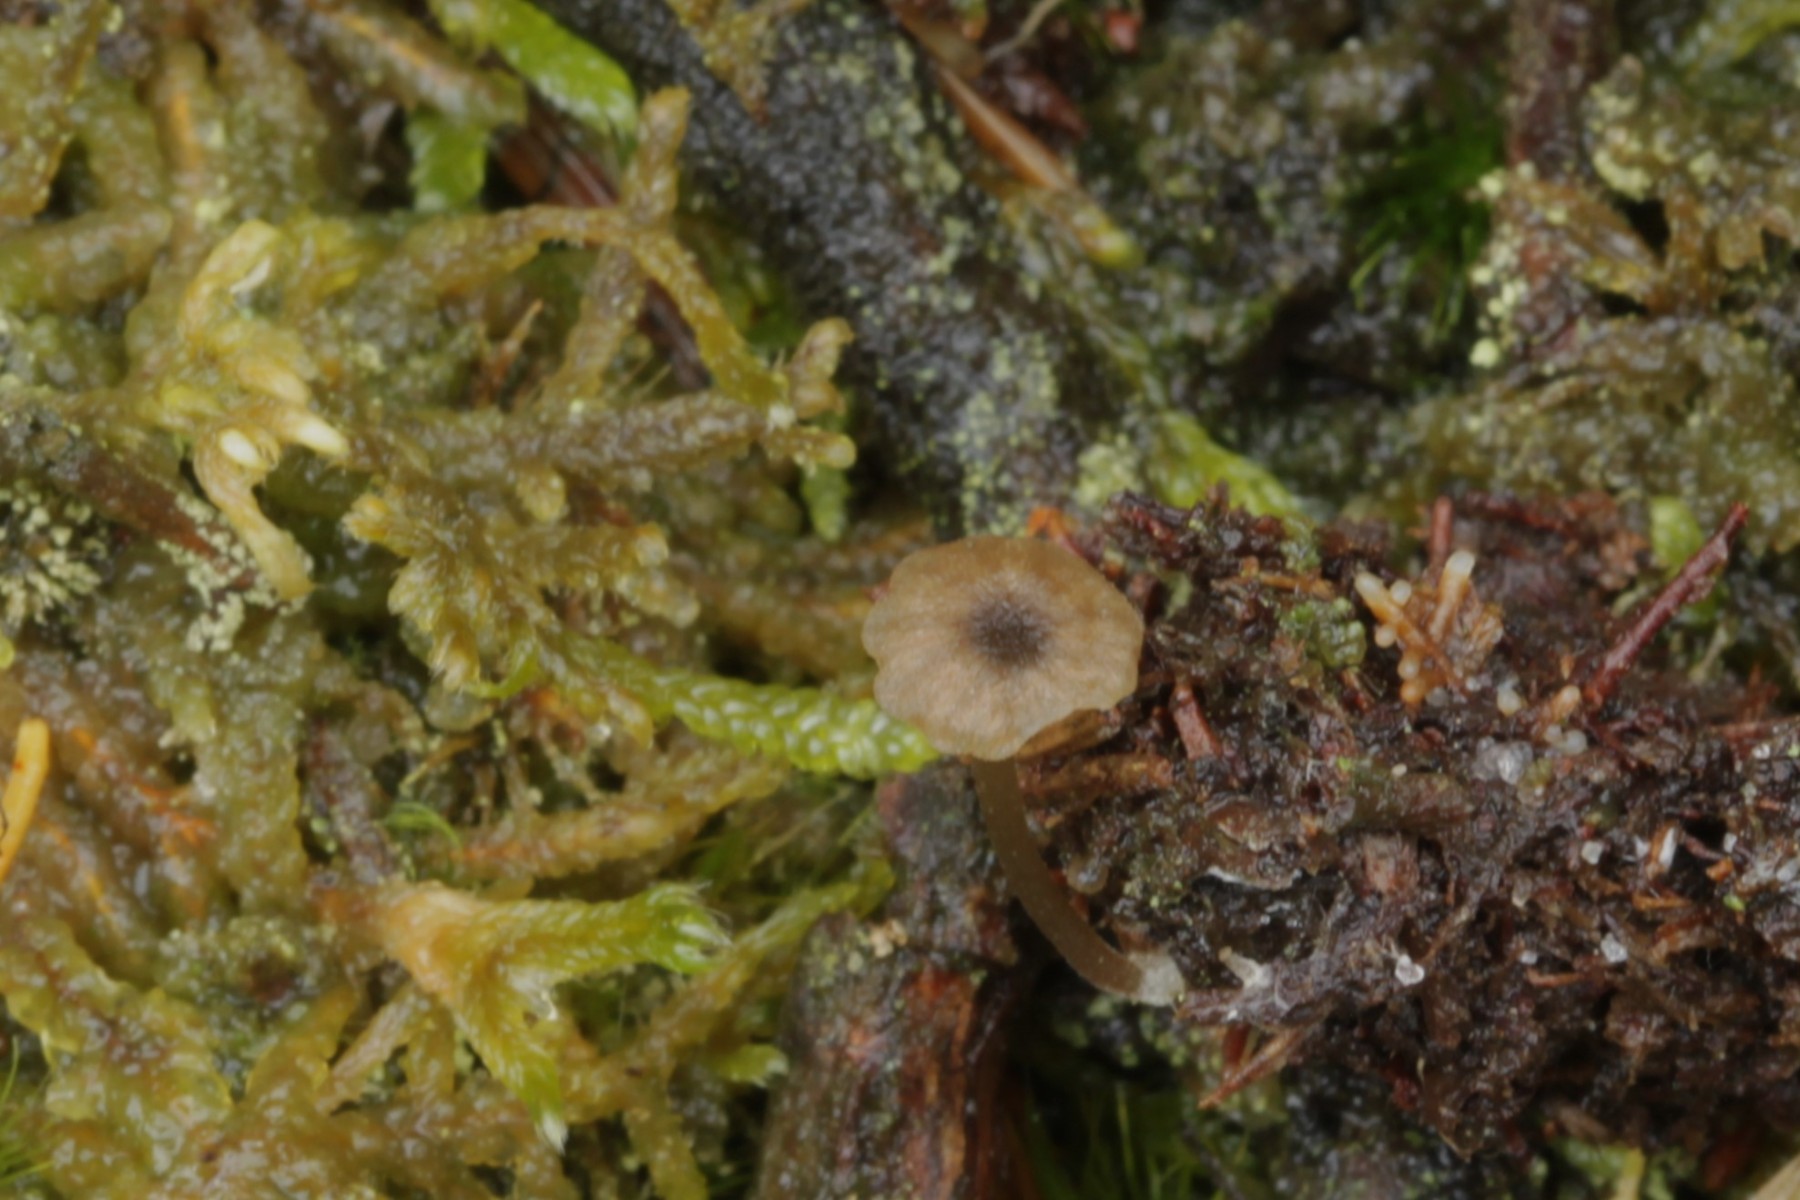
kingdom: Fungi
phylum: Basidiomycota
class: Agaricomycetes
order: Agaricales
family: Entolomataceae
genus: Entoloma
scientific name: Entoloma
